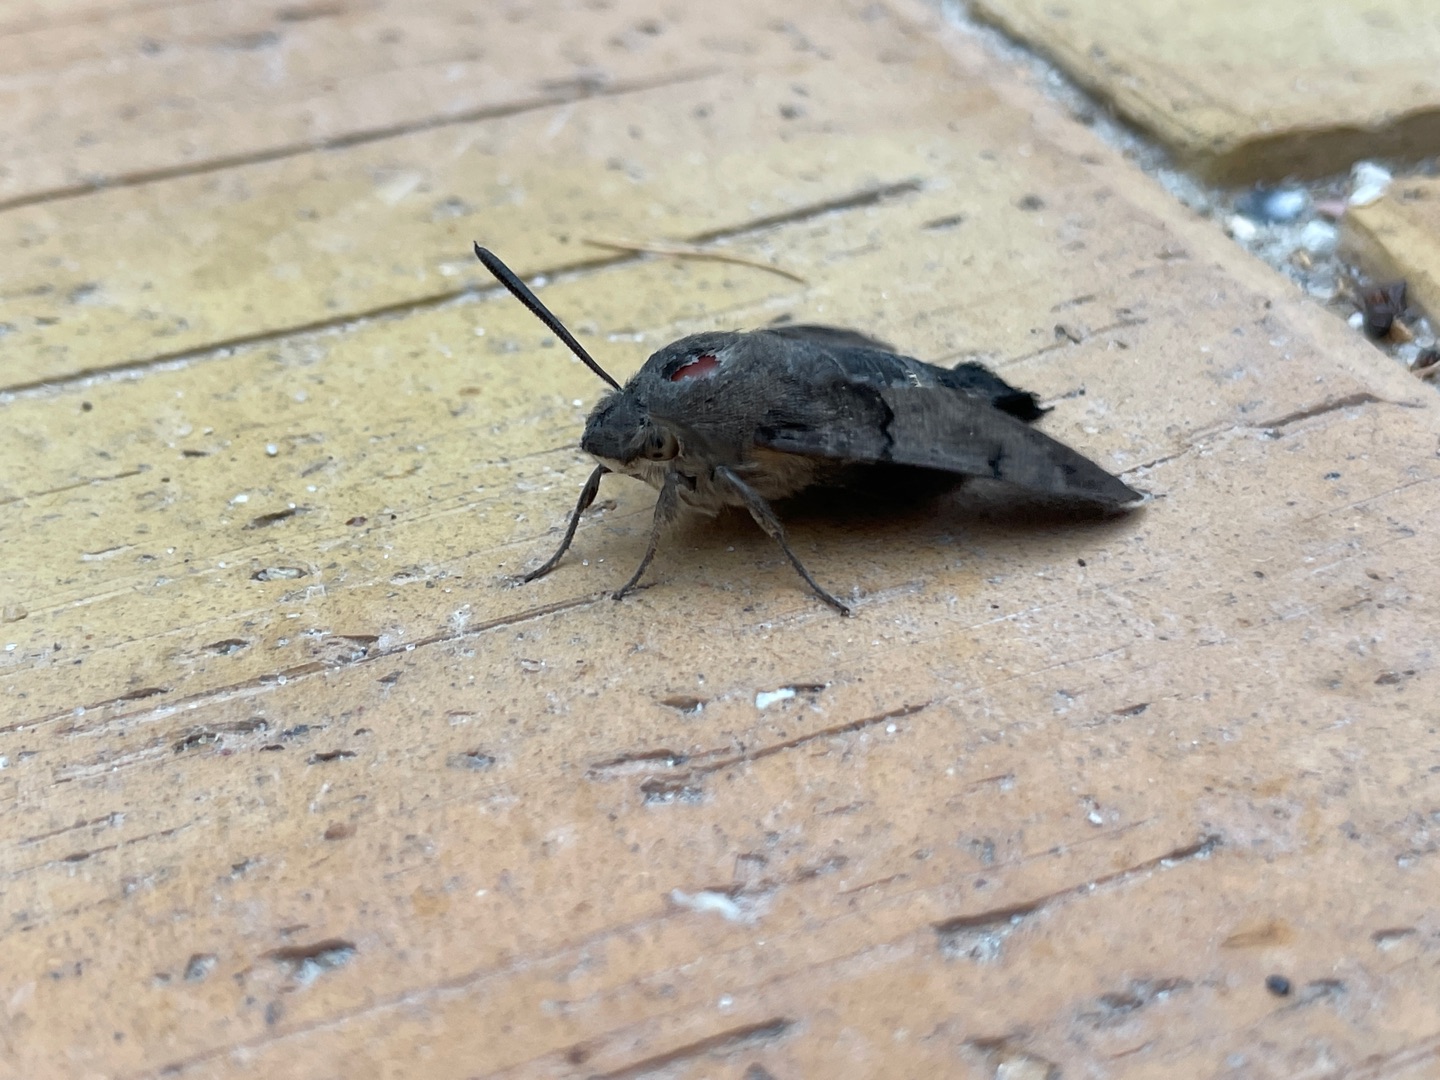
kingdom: Animalia
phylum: Arthropoda
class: Insecta
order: Lepidoptera
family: Sphingidae
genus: Macroglossum
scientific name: Macroglossum stellatarum
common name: Duehale
